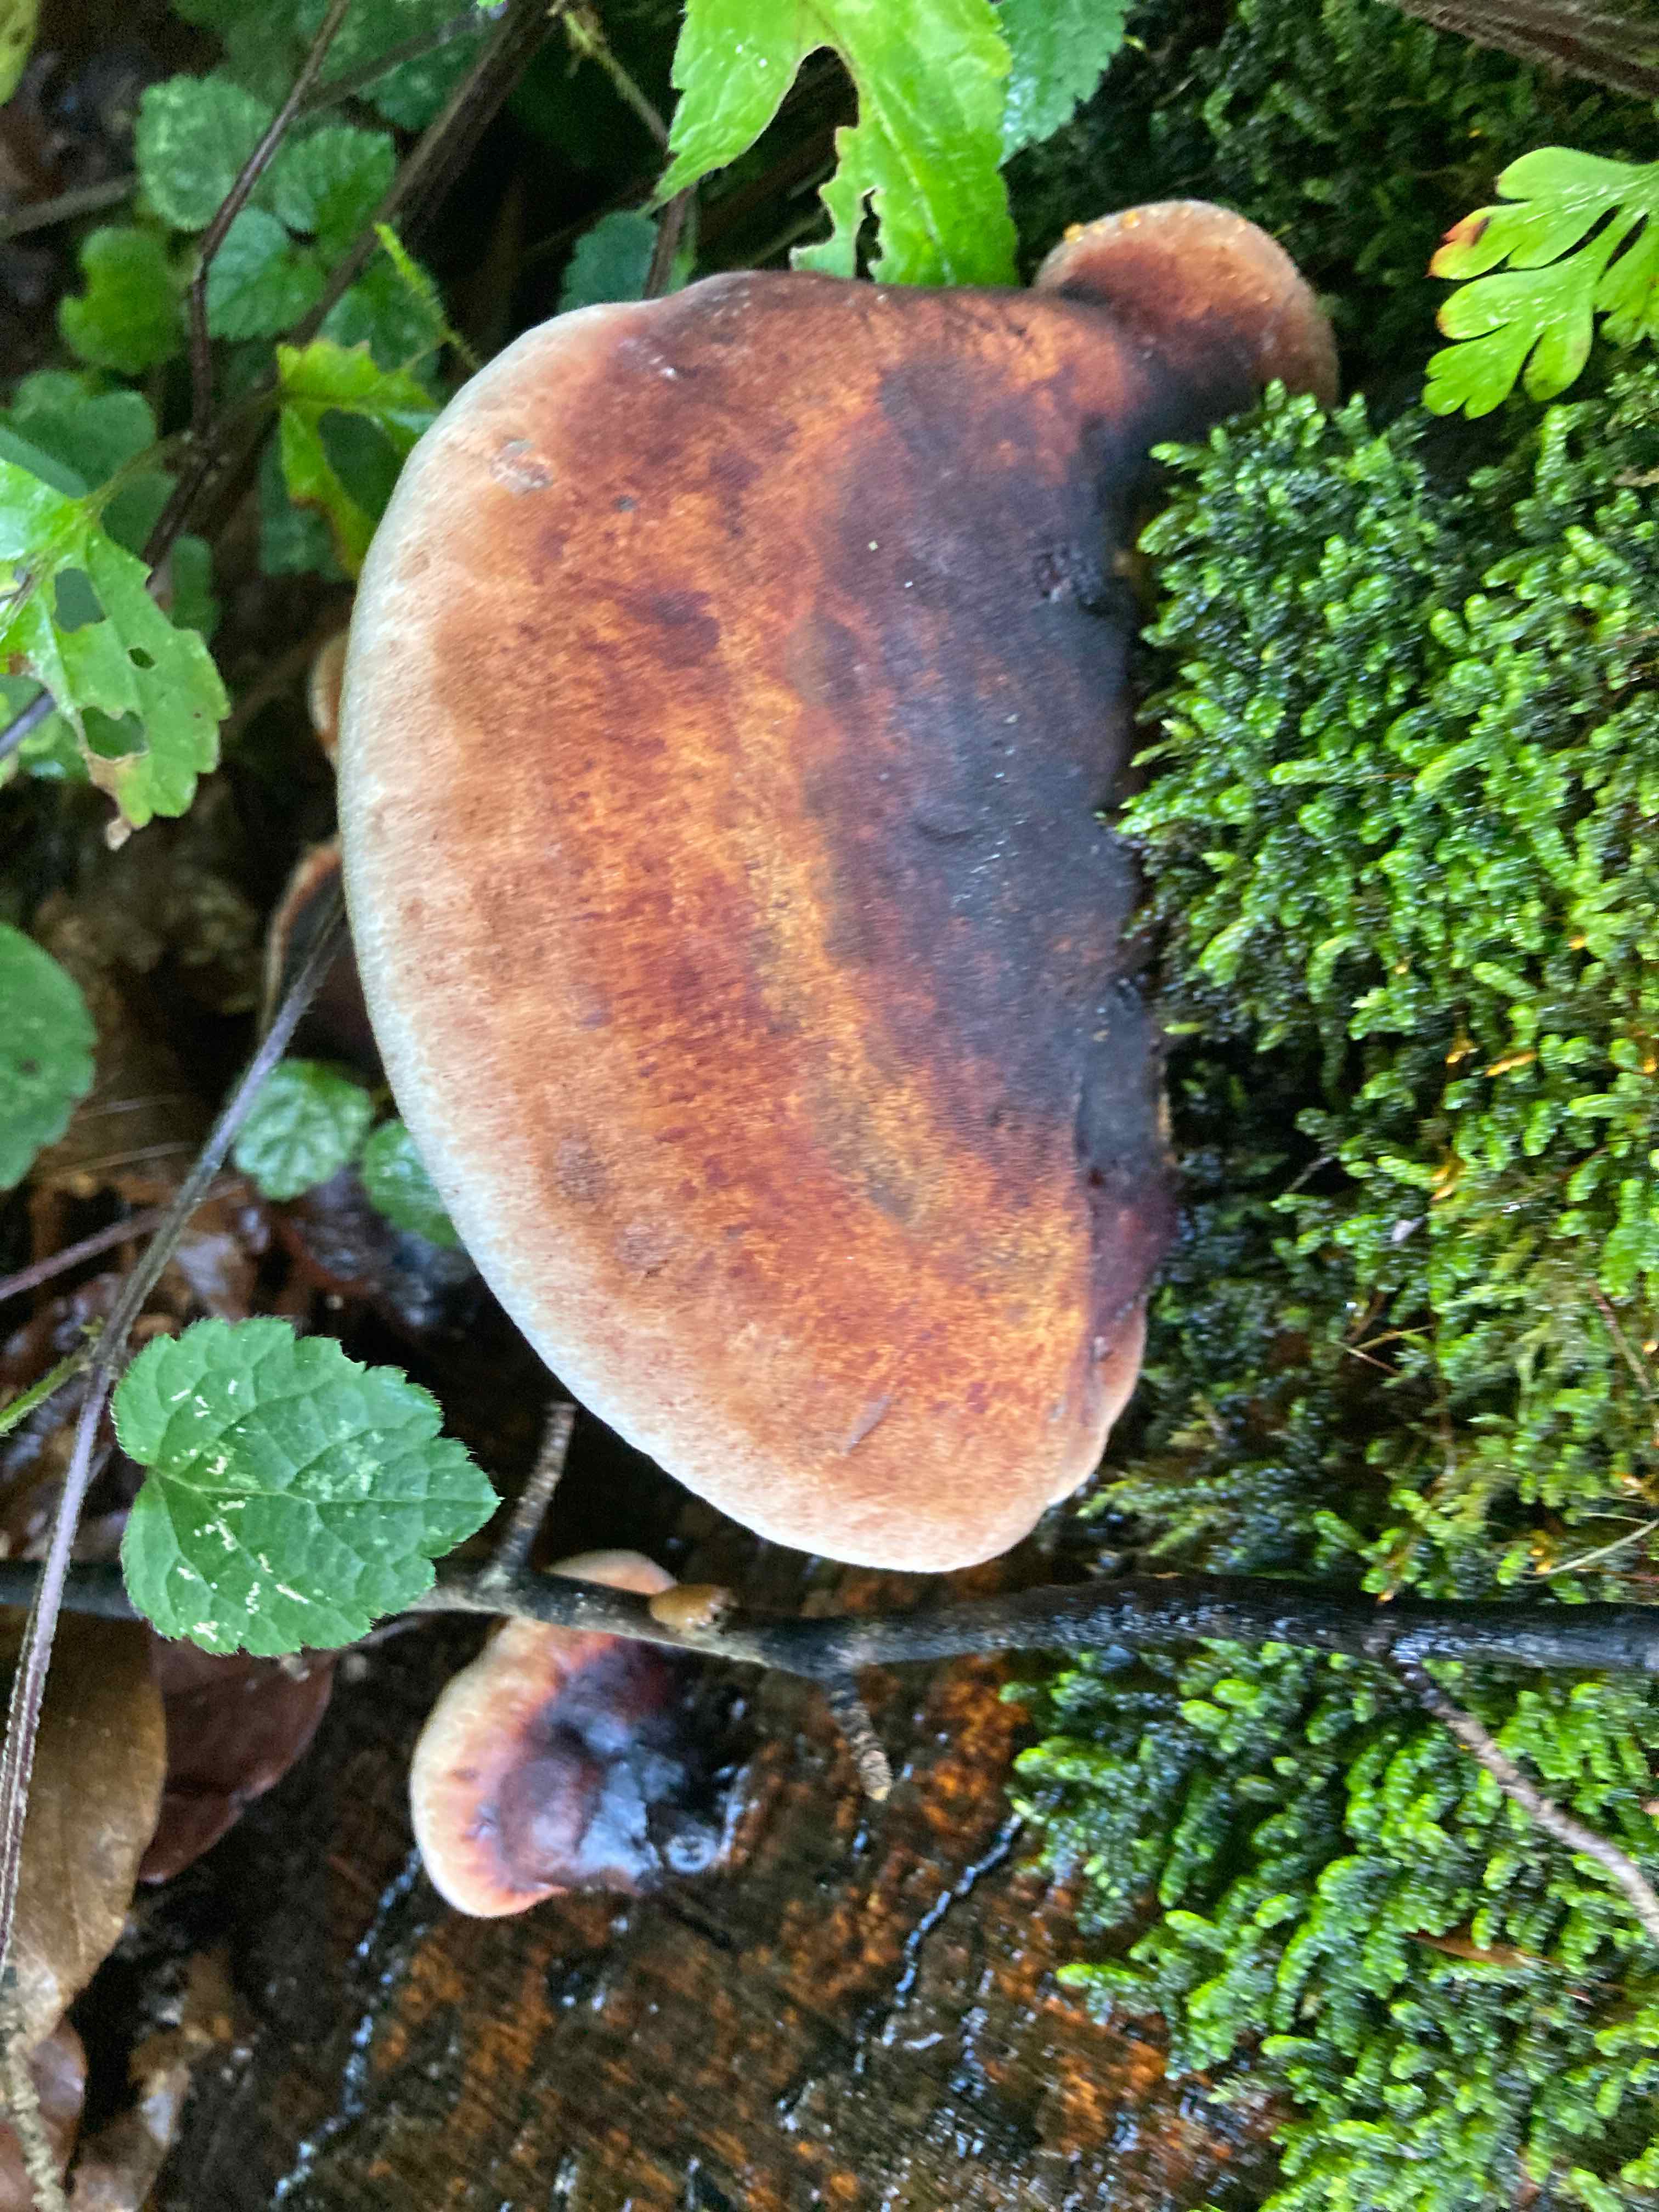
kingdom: Fungi
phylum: Basidiomycota
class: Agaricomycetes
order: Polyporales
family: Ischnodermataceae
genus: Ischnoderma
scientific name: Ischnoderma resinosum
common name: løv-tjæreporesvamp
